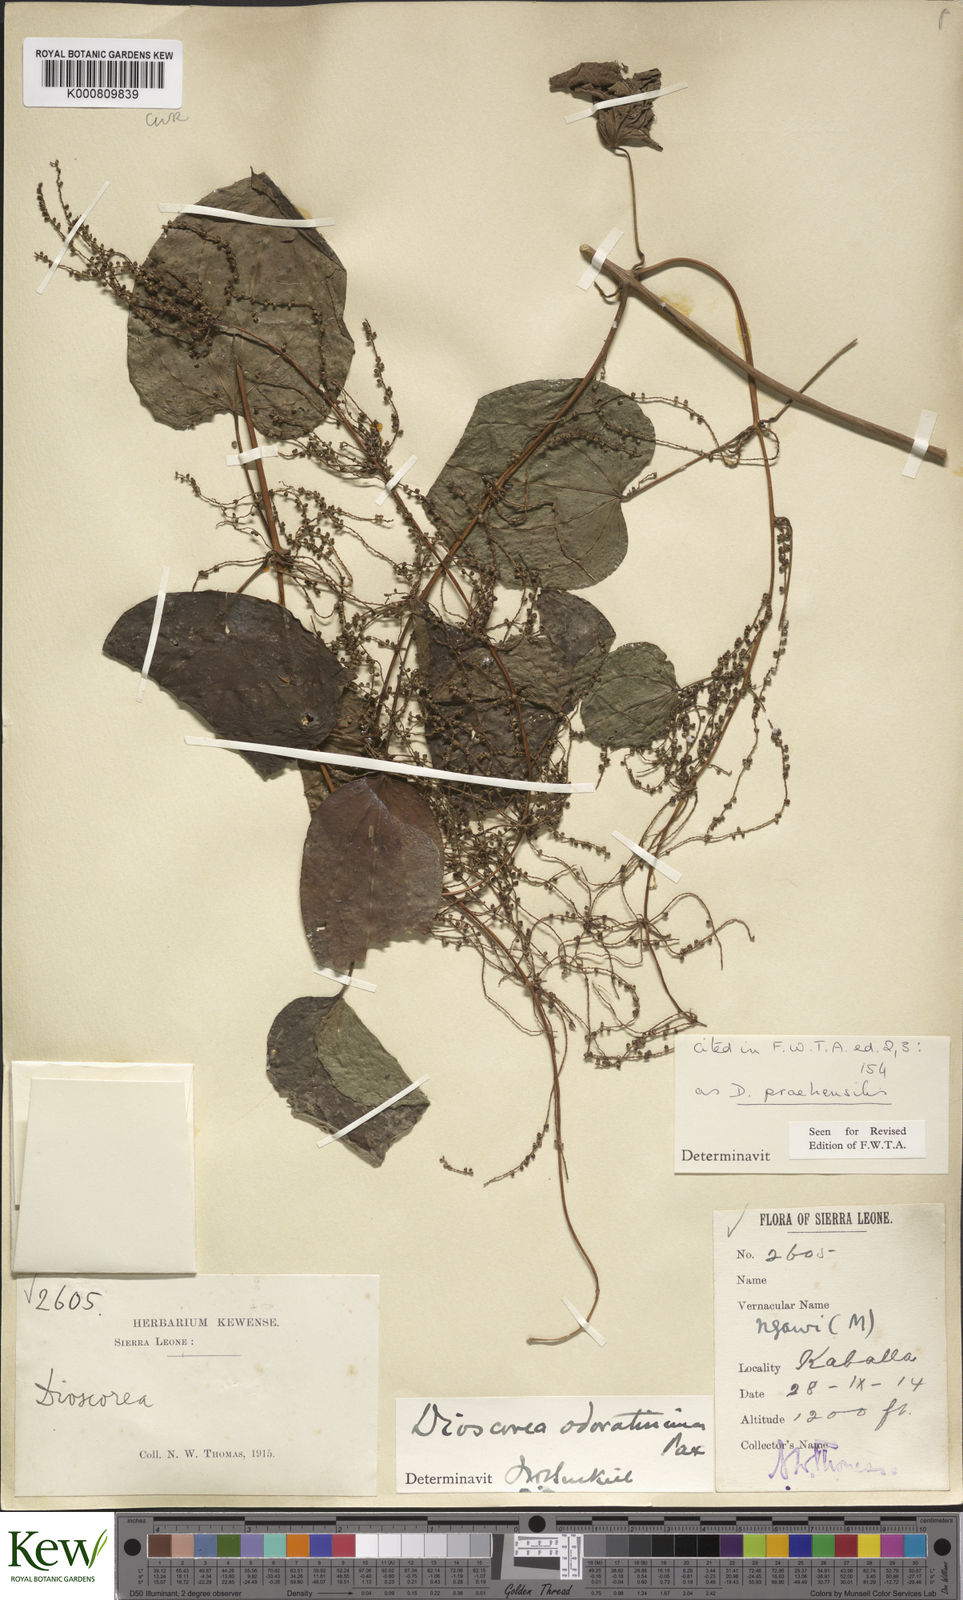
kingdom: Plantae
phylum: Tracheophyta
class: Liliopsida
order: Dioscoreales
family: Dioscoreaceae
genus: Dioscorea
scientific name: Dioscorea praehensilis
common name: Bush yam
